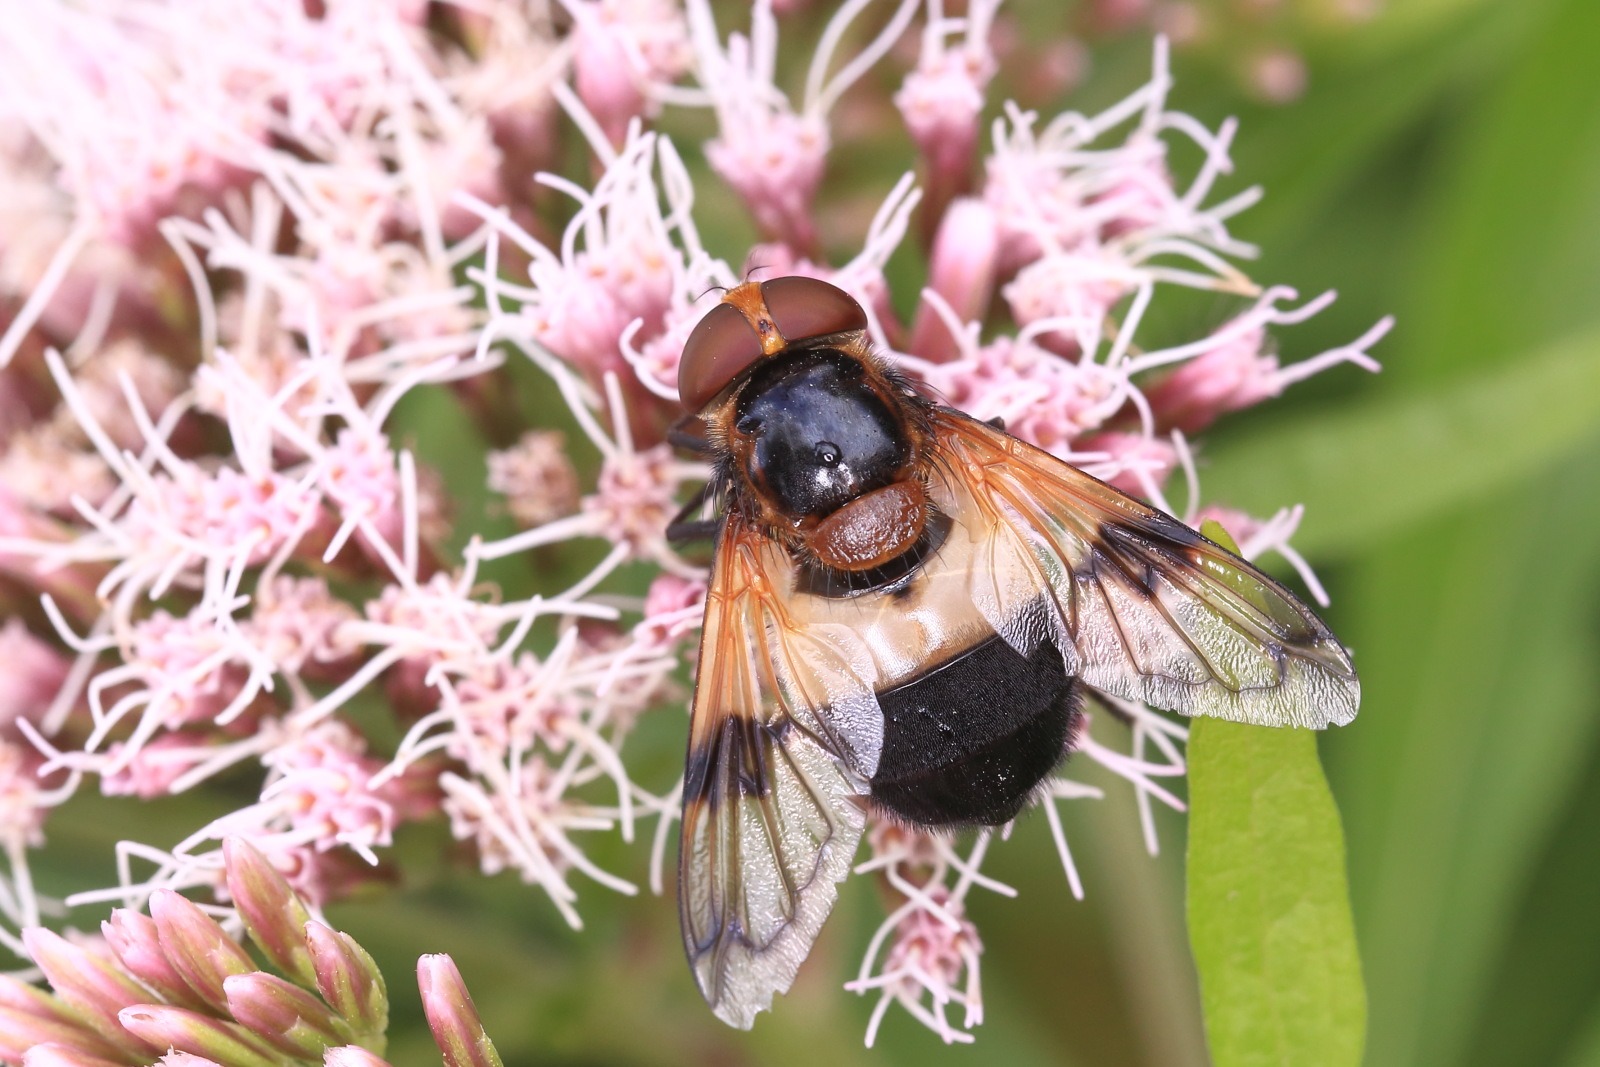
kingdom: Animalia
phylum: Arthropoda
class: Insecta
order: Diptera
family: Syrphidae
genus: Volucella
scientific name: Volucella pellucens
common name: Hvidbåndet humlesvirreflue
